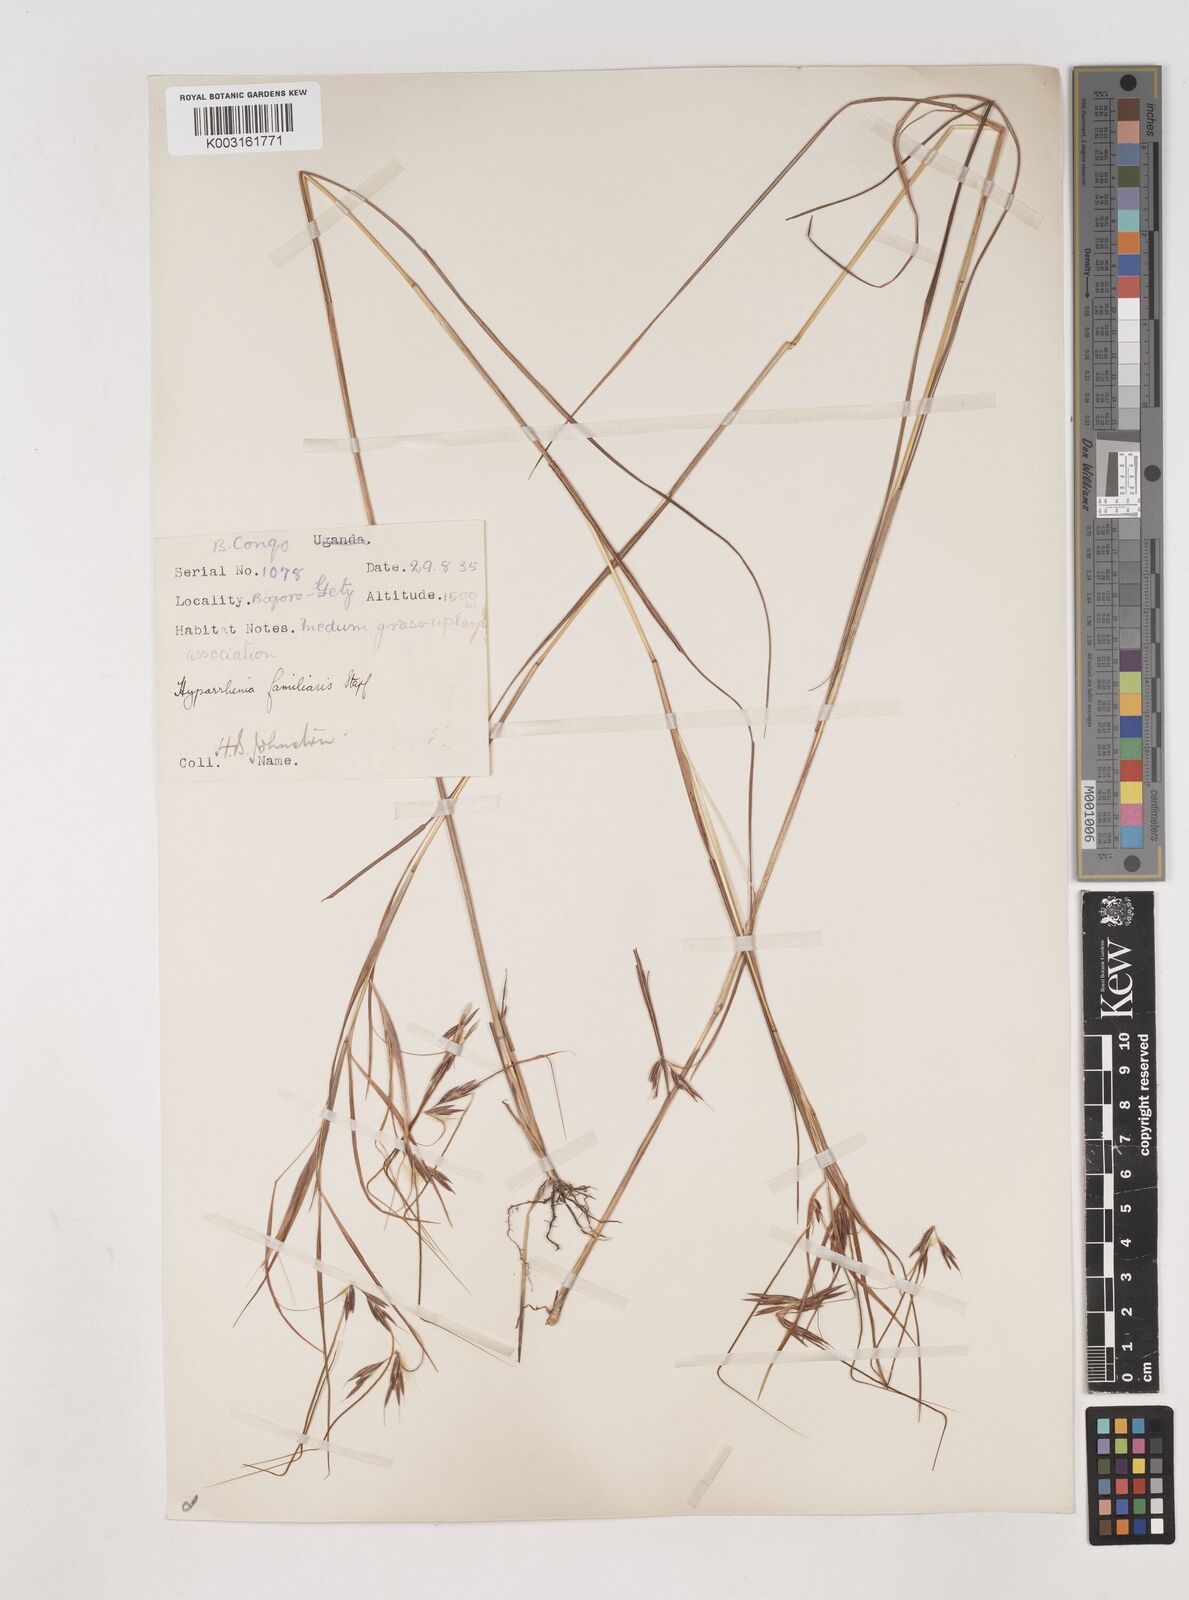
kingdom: Plantae
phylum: Tracheophyta
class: Liliopsida
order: Poales
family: Poaceae
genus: Hyparrhenia
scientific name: Hyparrhenia familiaris
